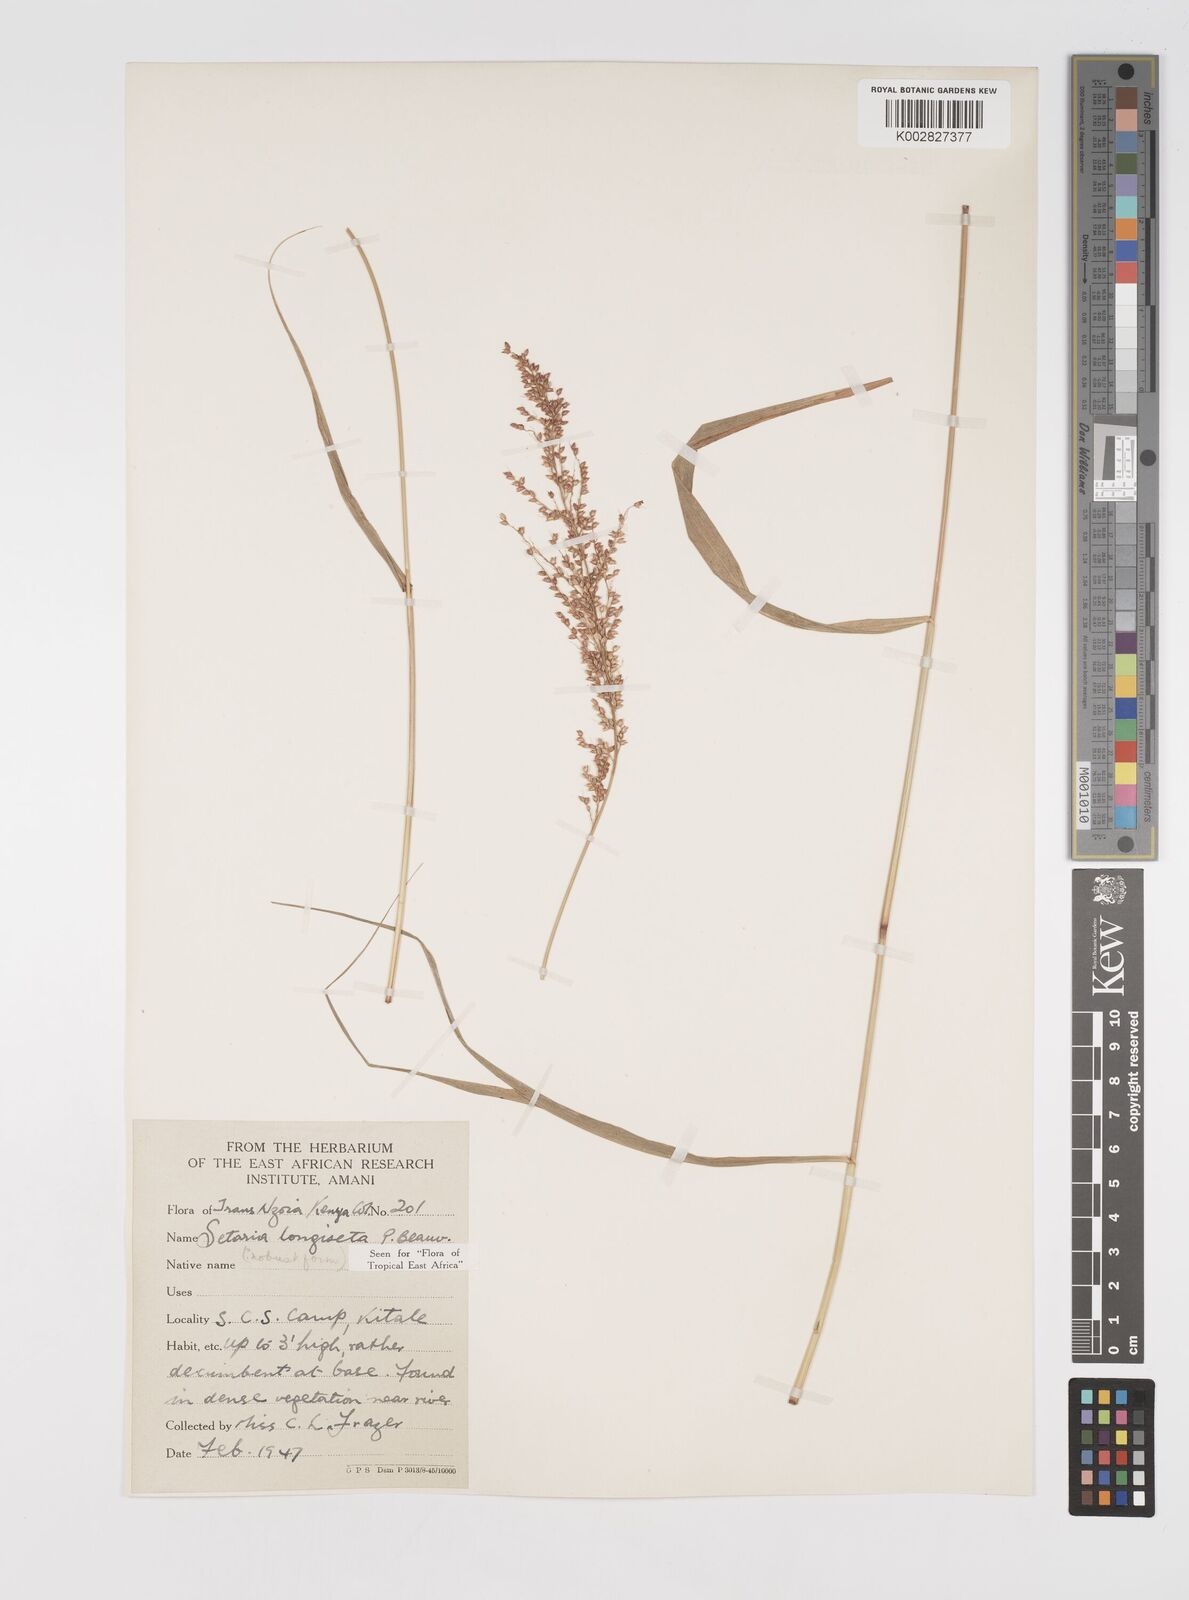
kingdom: Plantae
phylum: Tracheophyta
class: Liliopsida
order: Poales
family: Poaceae
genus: Setaria
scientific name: Setaria longiseta
